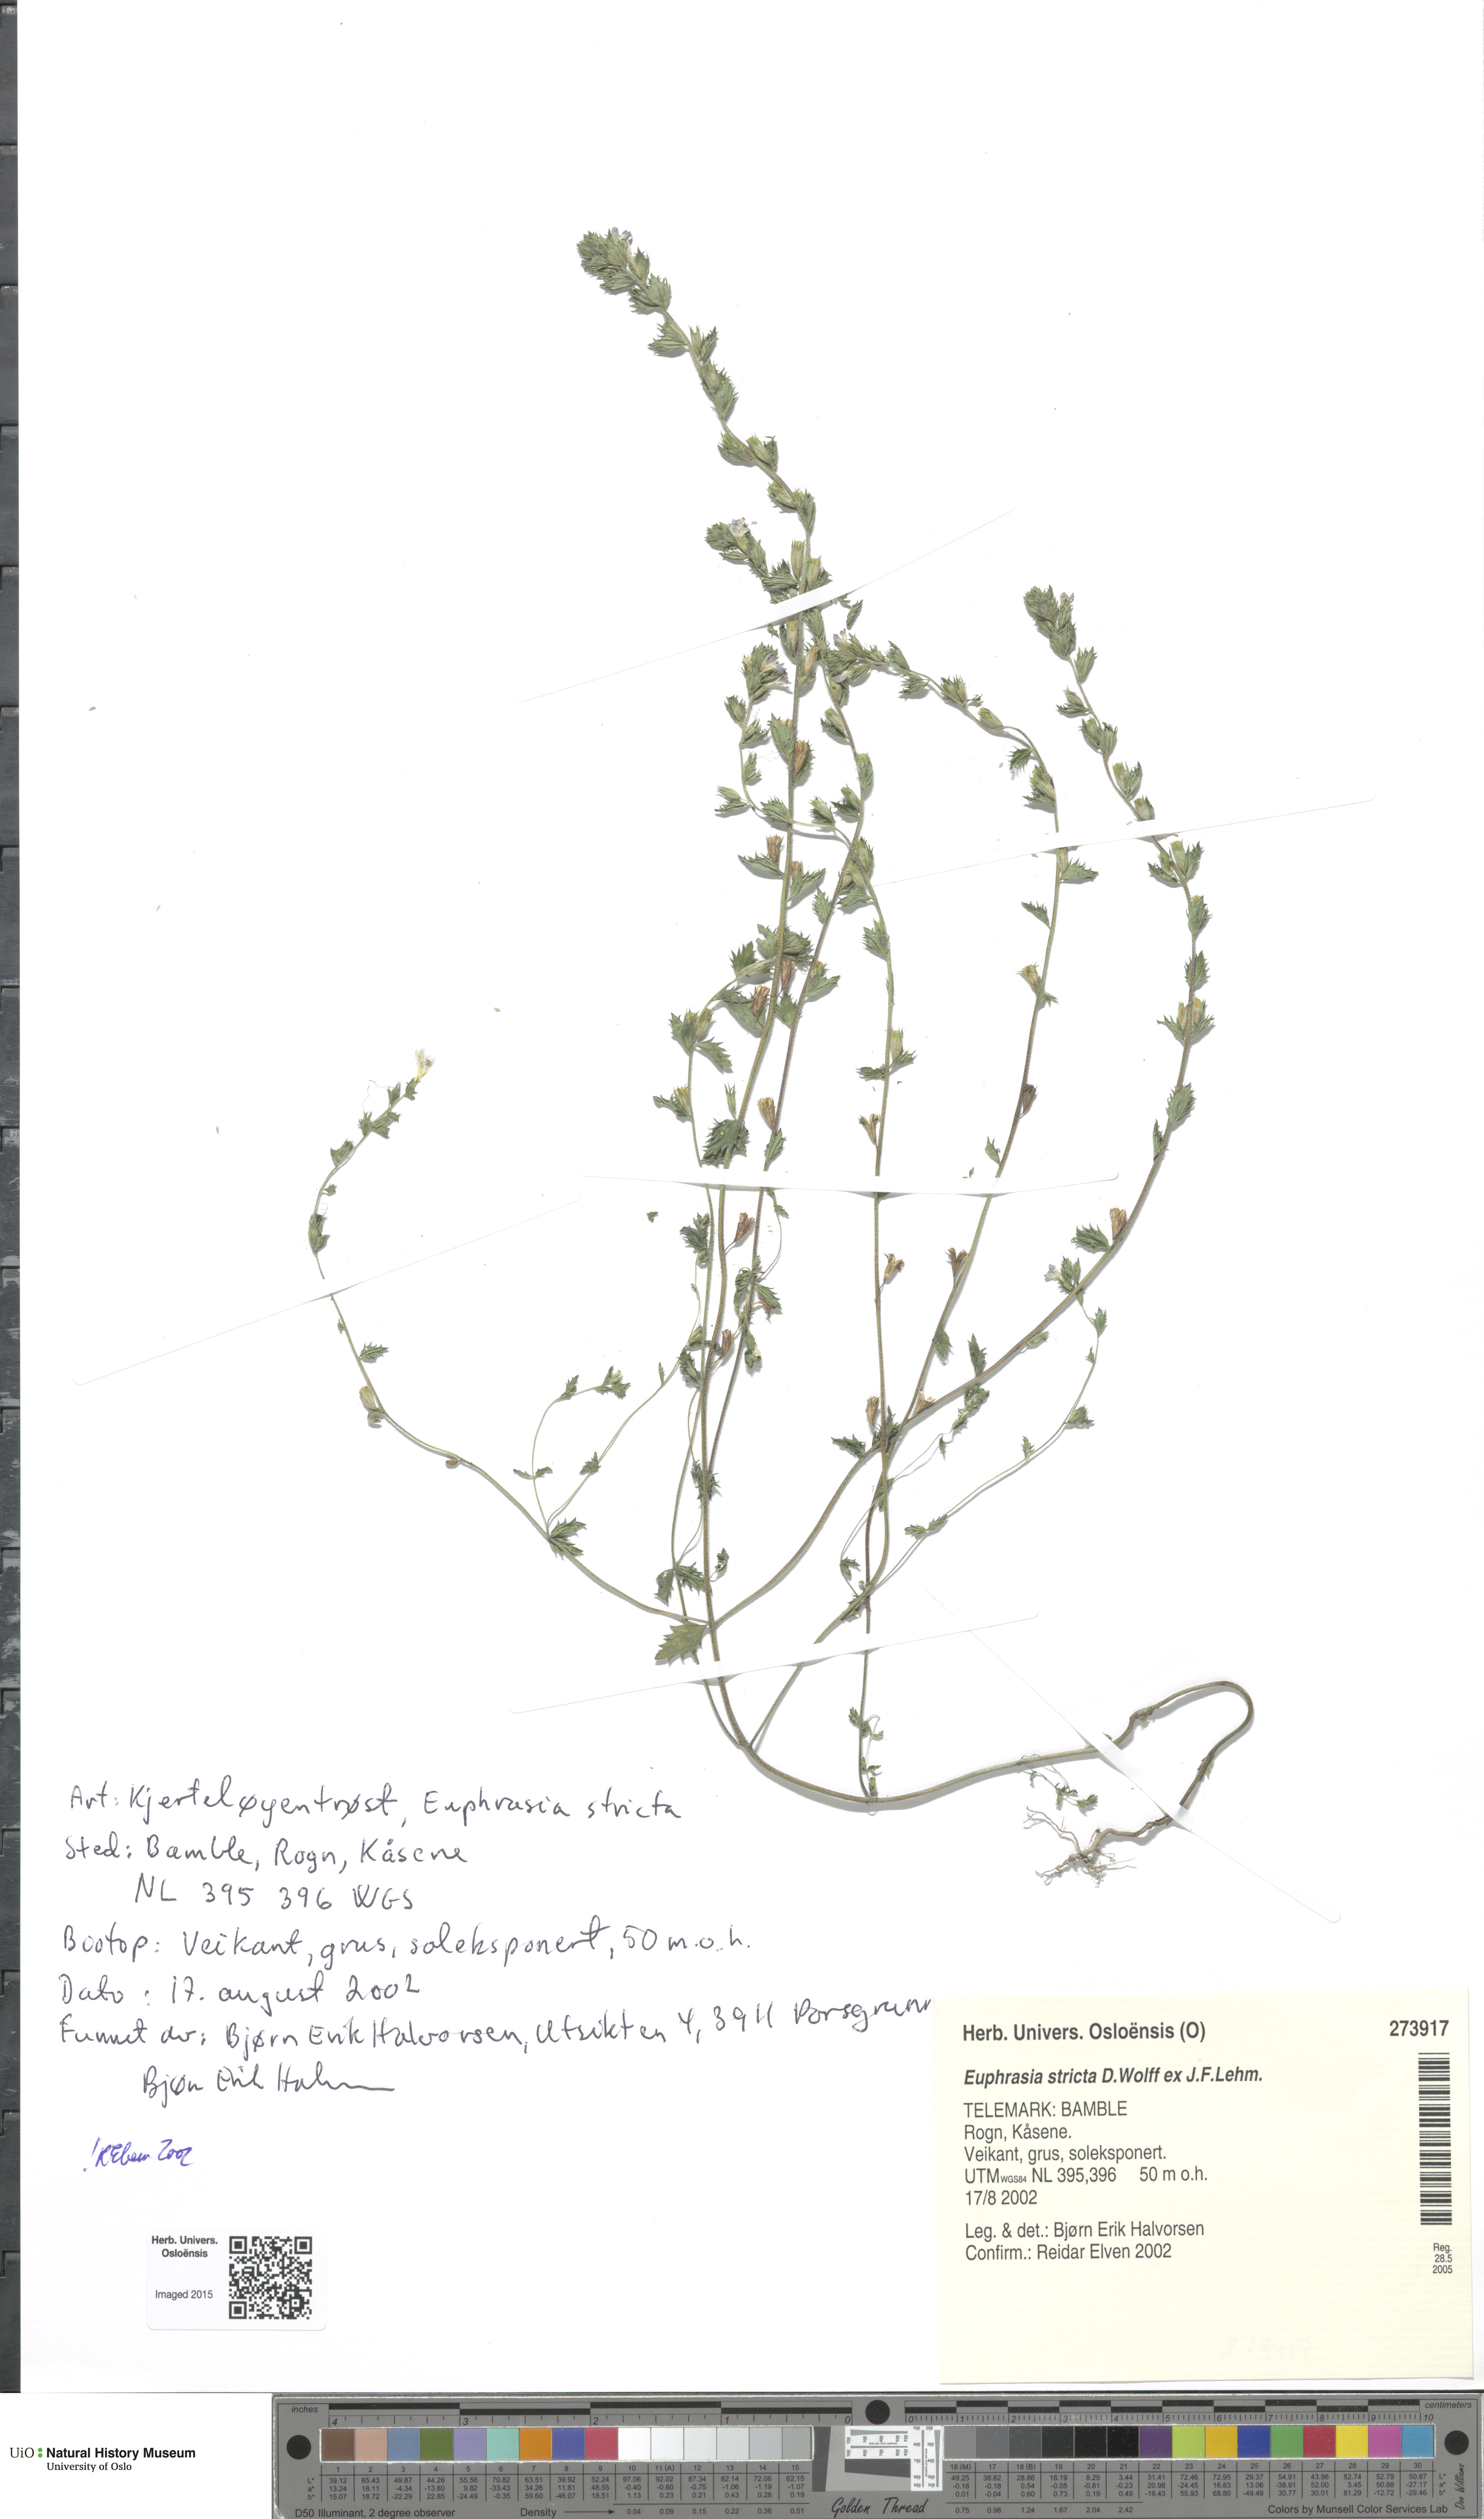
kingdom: Plantae
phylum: Tracheophyta
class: Magnoliopsida
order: Lamiales
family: Orobanchaceae
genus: Euphrasia
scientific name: Euphrasia stricta
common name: Drug eyebright
